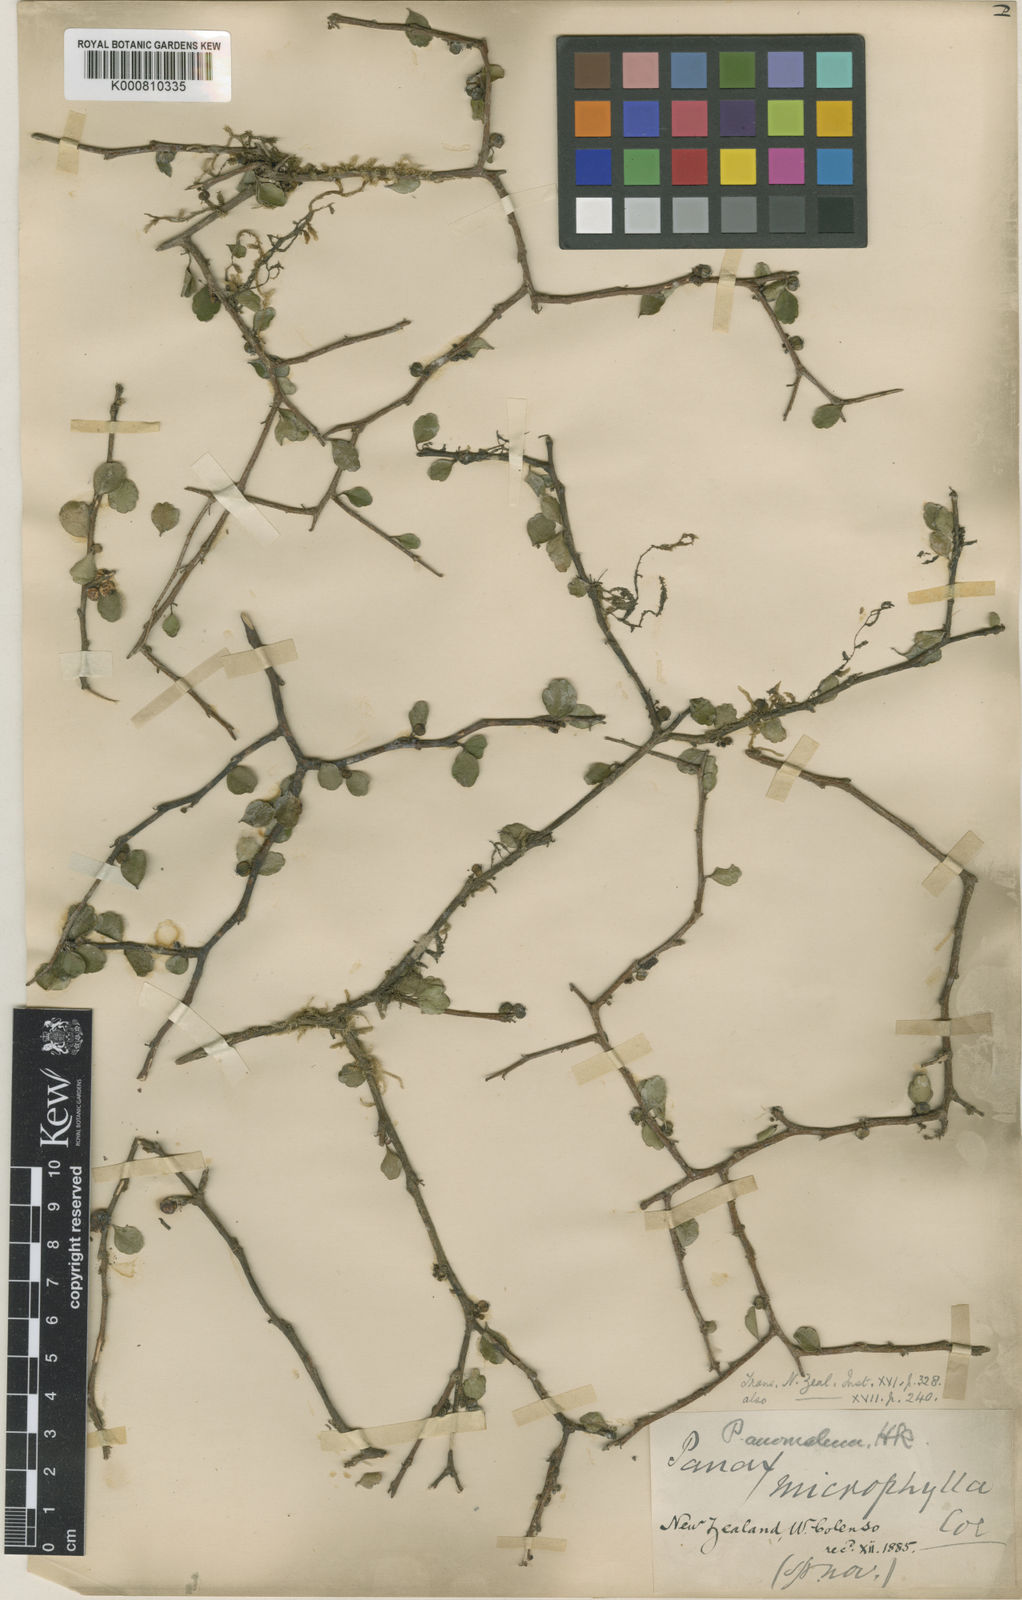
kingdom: Plantae
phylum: Tracheophyta
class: Magnoliopsida
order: Apiales
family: Araliaceae
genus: Raukaua
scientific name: Raukaua anomalus
